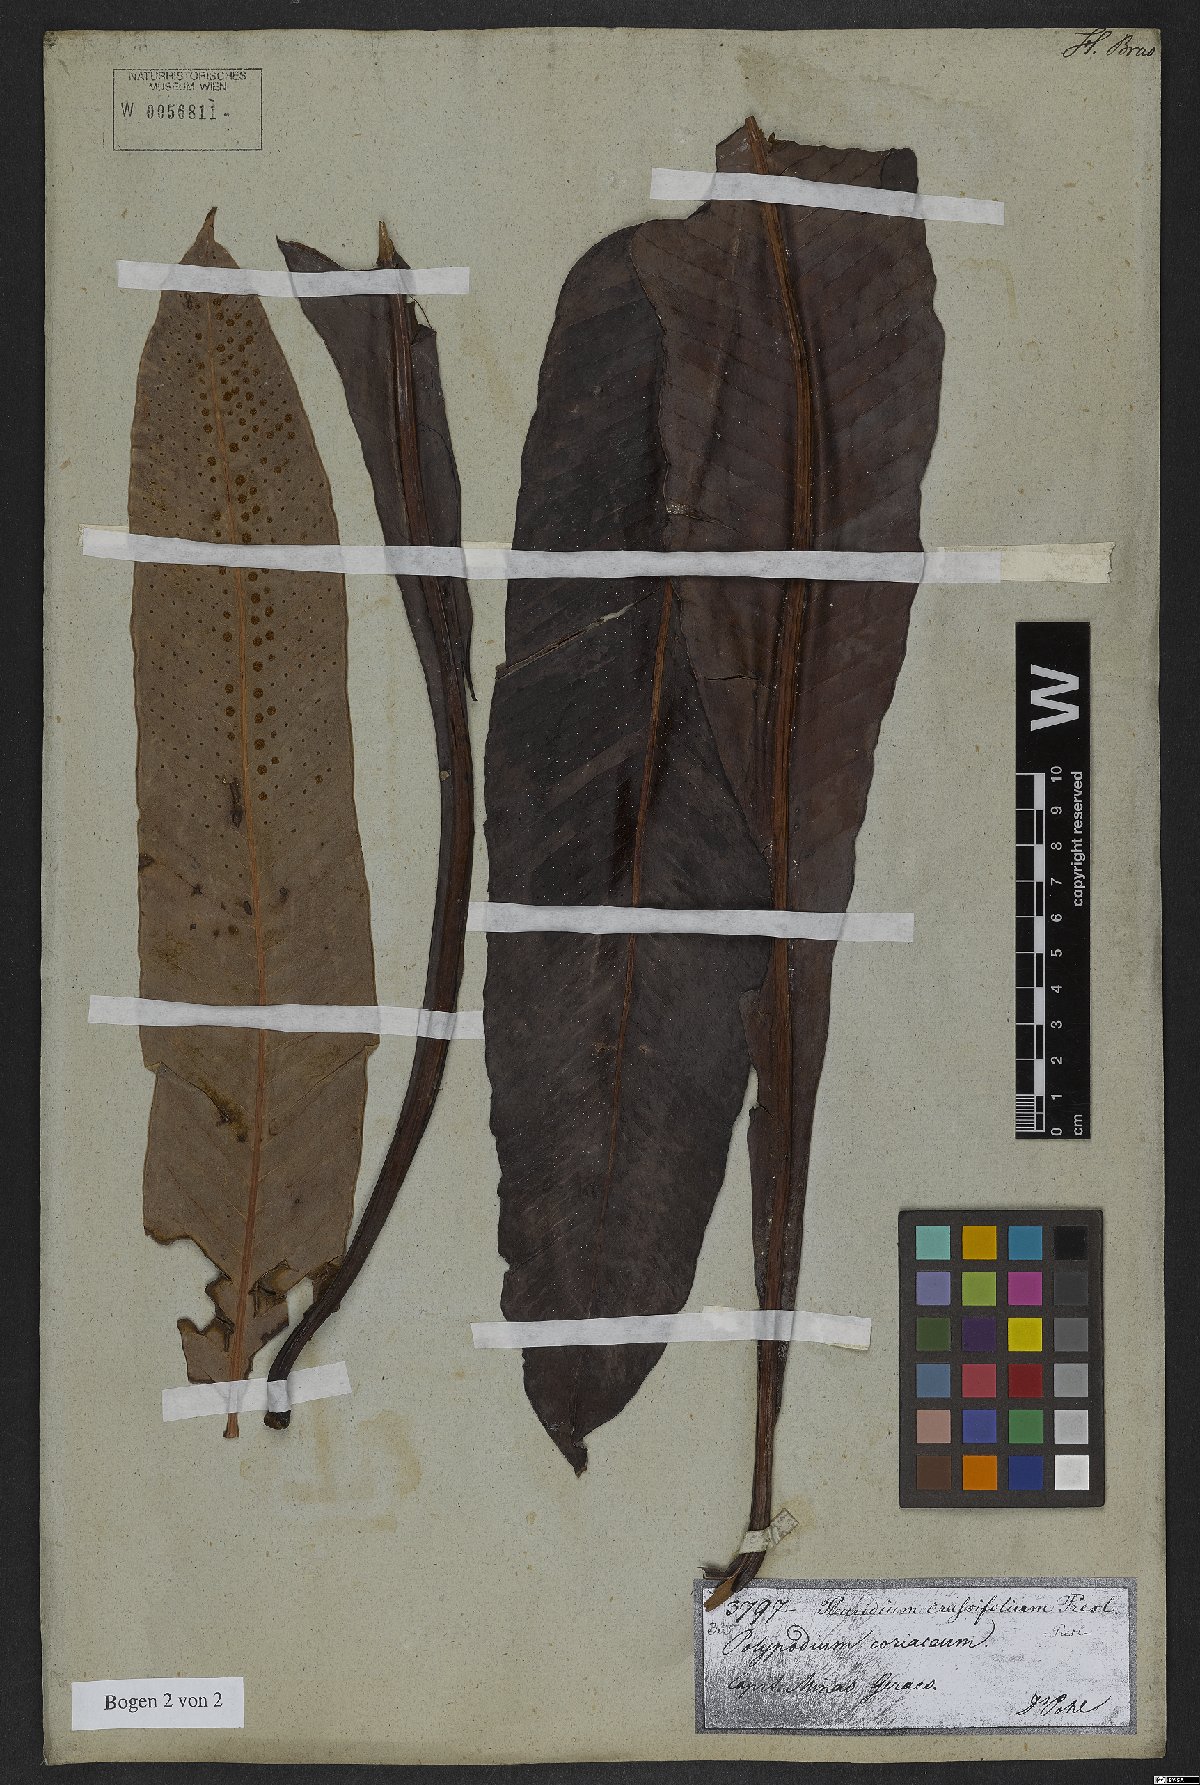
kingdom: Plantae
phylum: Tracheophyta
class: Polypodiopsida
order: Polypodiales
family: Polypodiaceae
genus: Niphidium
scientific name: Niphidium crassifolium
